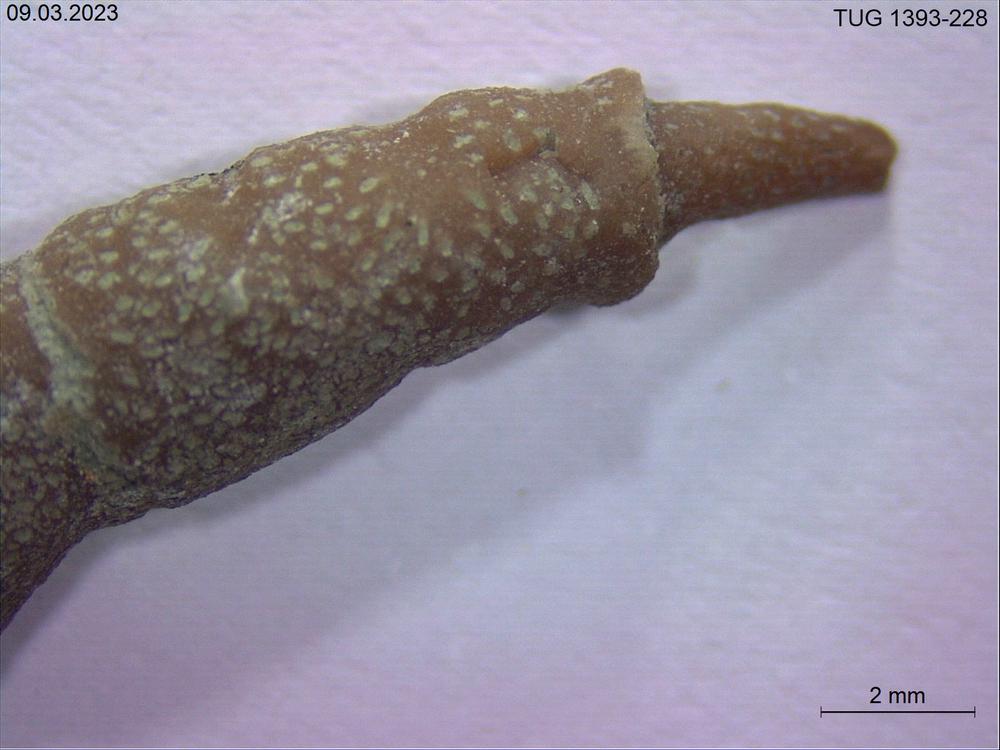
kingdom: Animalia
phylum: Bryozoa
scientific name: Bryozoa
